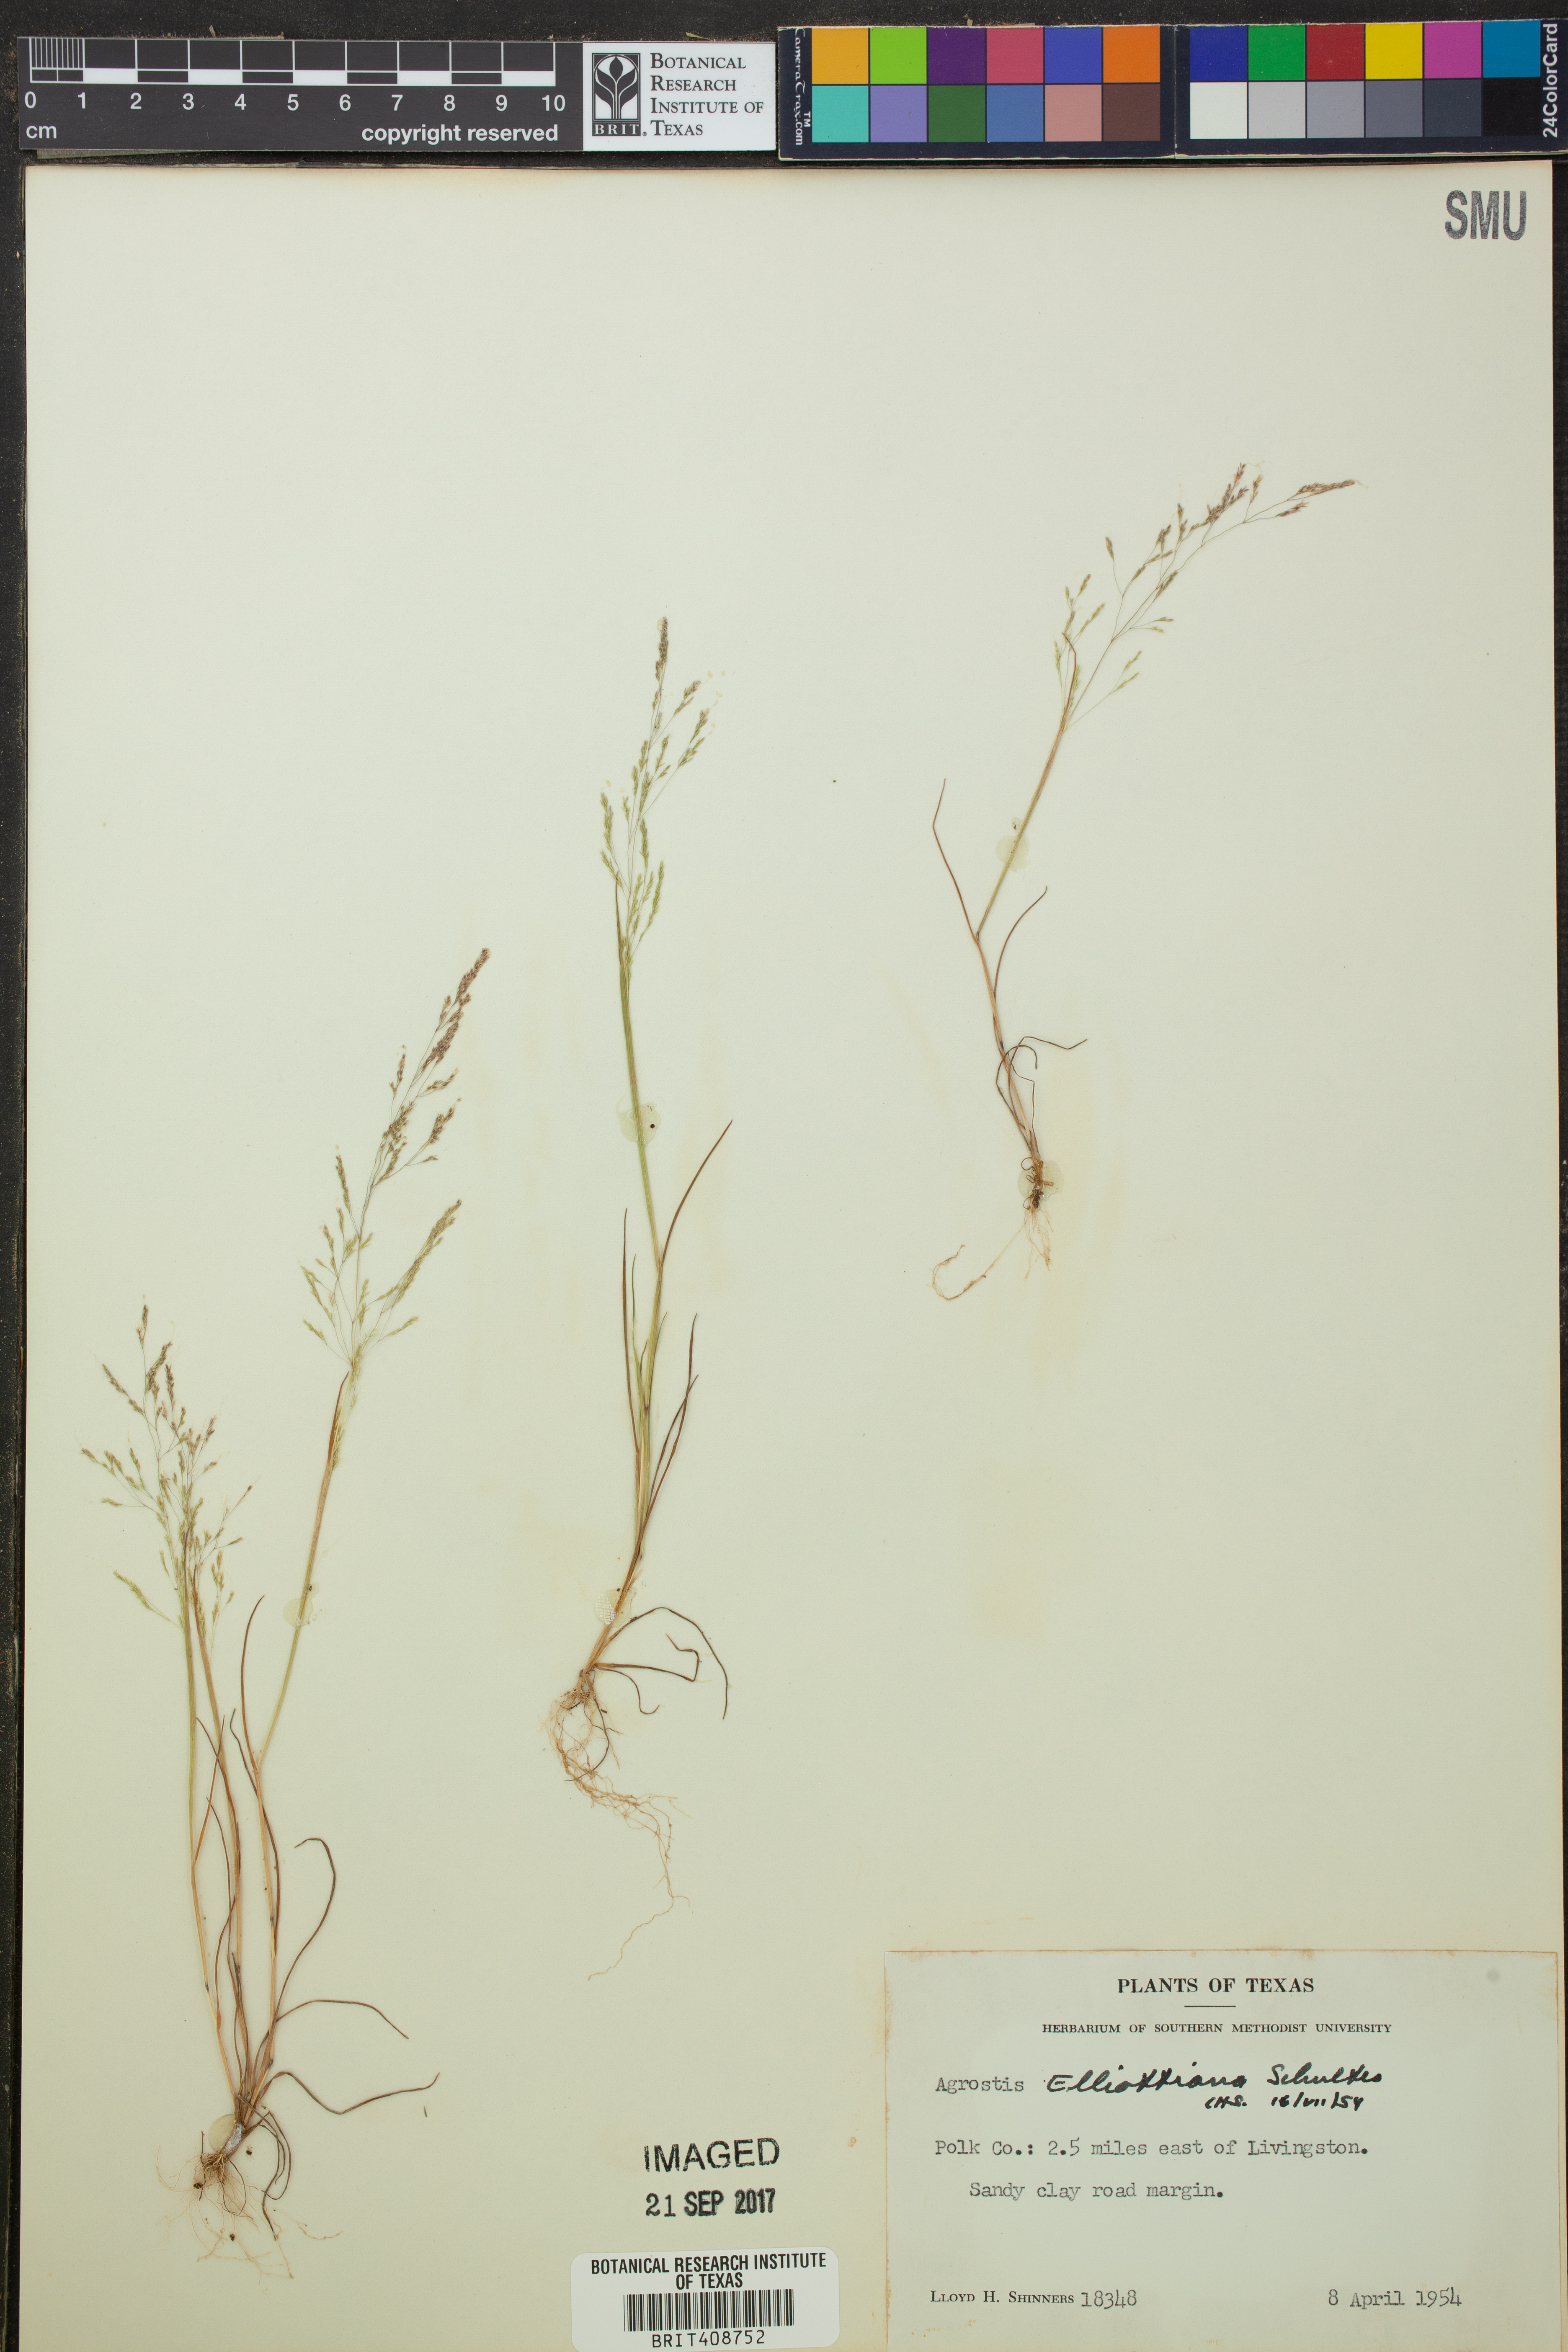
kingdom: Plantae
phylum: Tracheophyta
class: Liliopsida
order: Poales
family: Poaceae
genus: Agrostis
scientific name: Agrostis elliottiana
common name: Elliott's bent
